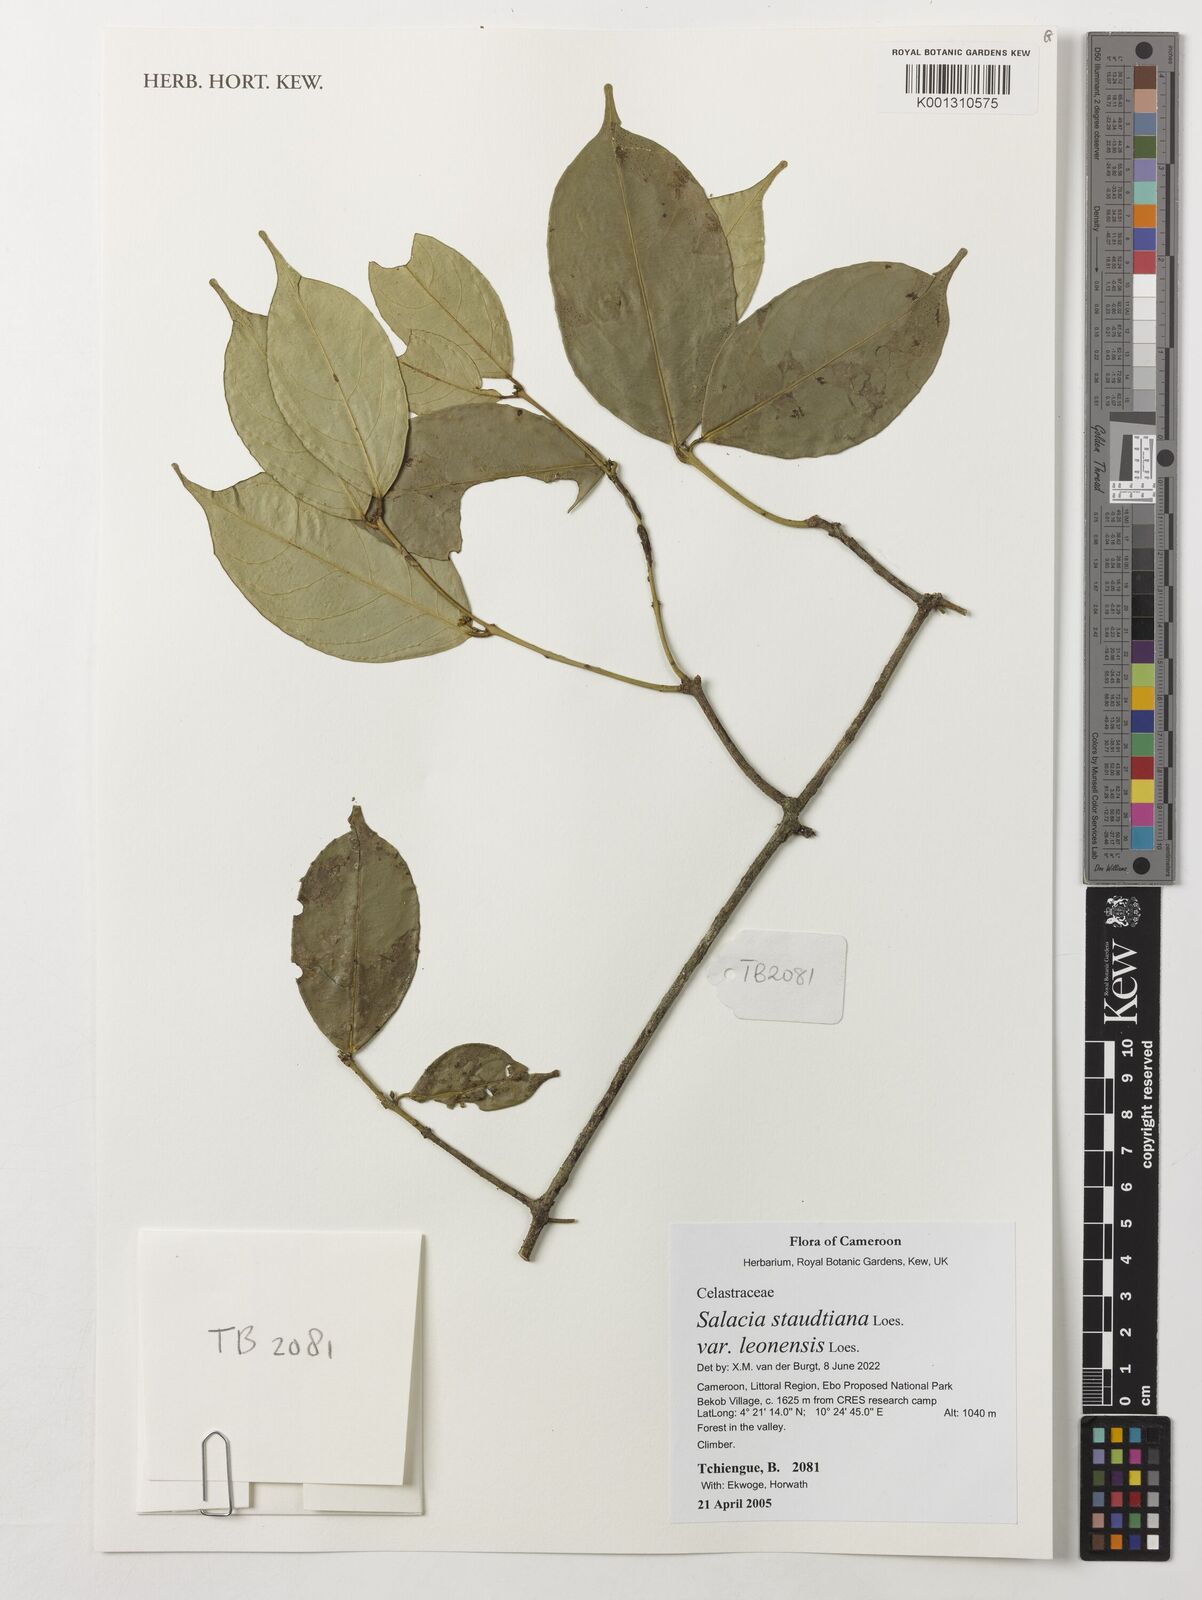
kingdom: Plantae
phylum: Tracheophyta
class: Magnoliopsida
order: Celastrales
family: Celastraceae
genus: Salacia
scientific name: Salacia staudtiana
